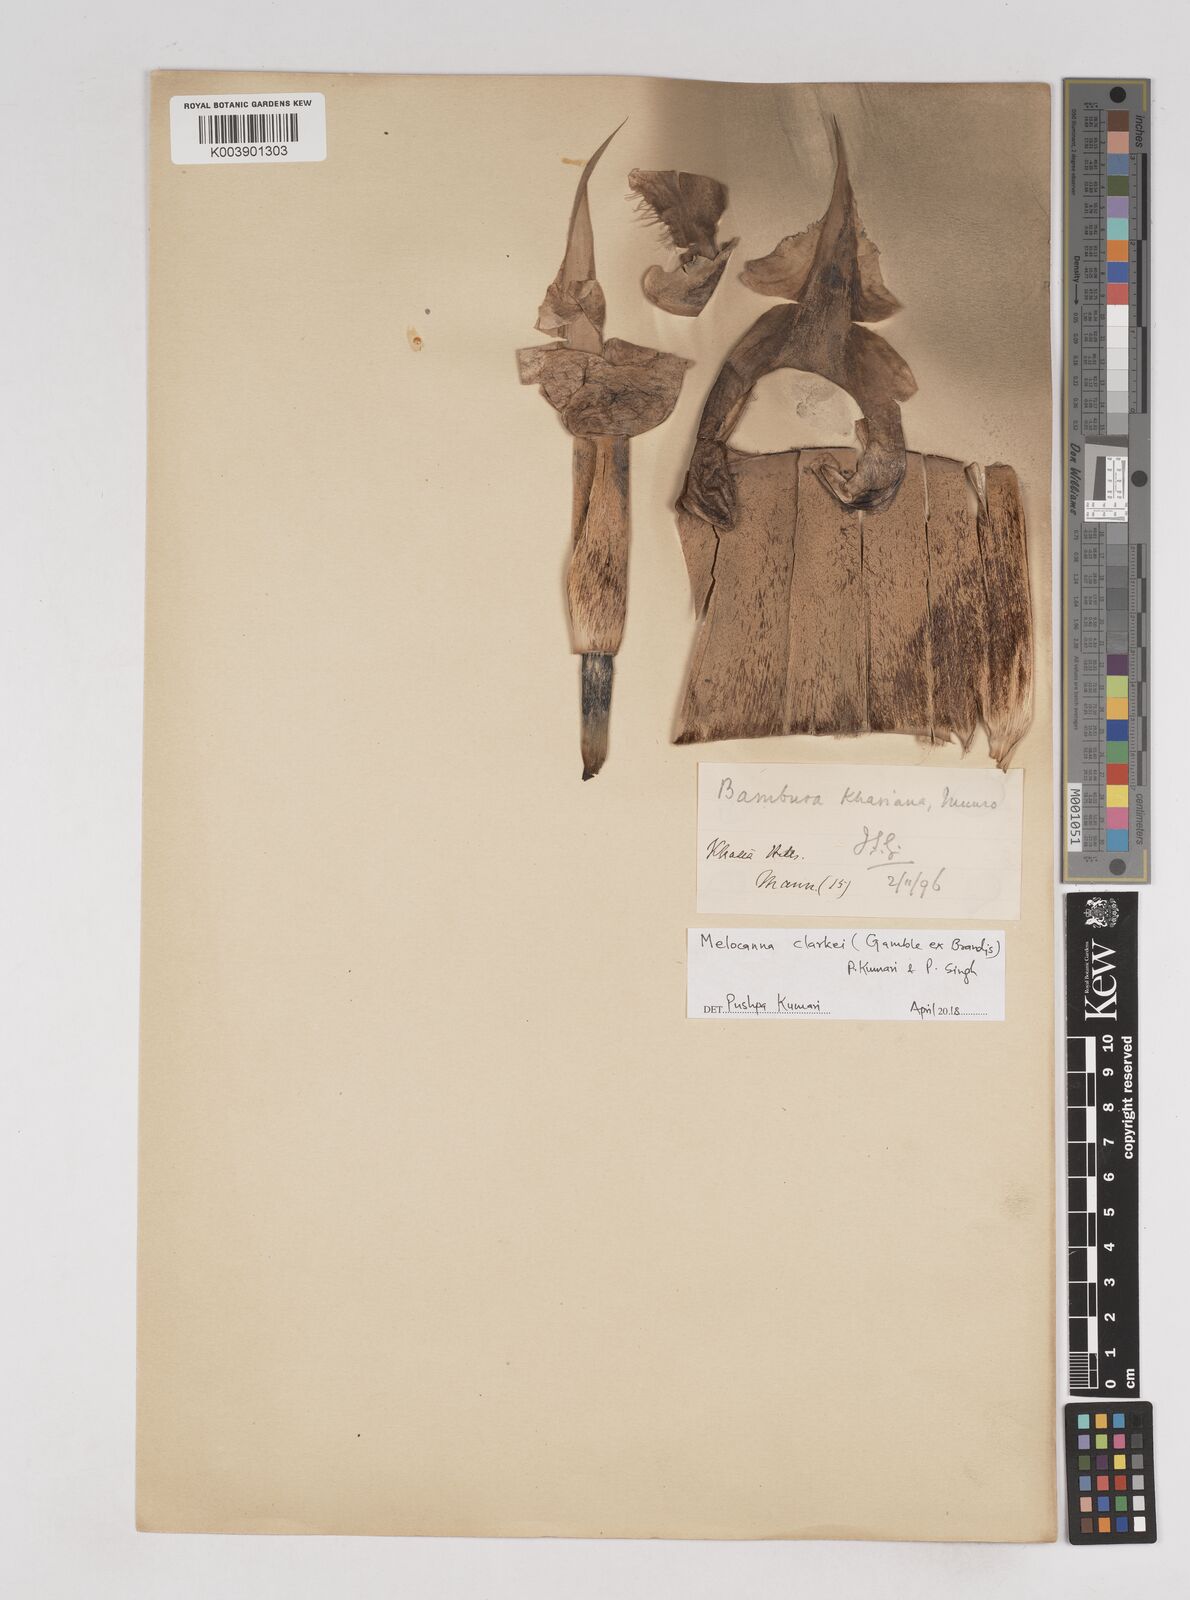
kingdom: Plantae
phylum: Tracheophyta
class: Liliopsida
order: Poales
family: Poaceae
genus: Melocanna
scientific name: Melocanna clarkei
